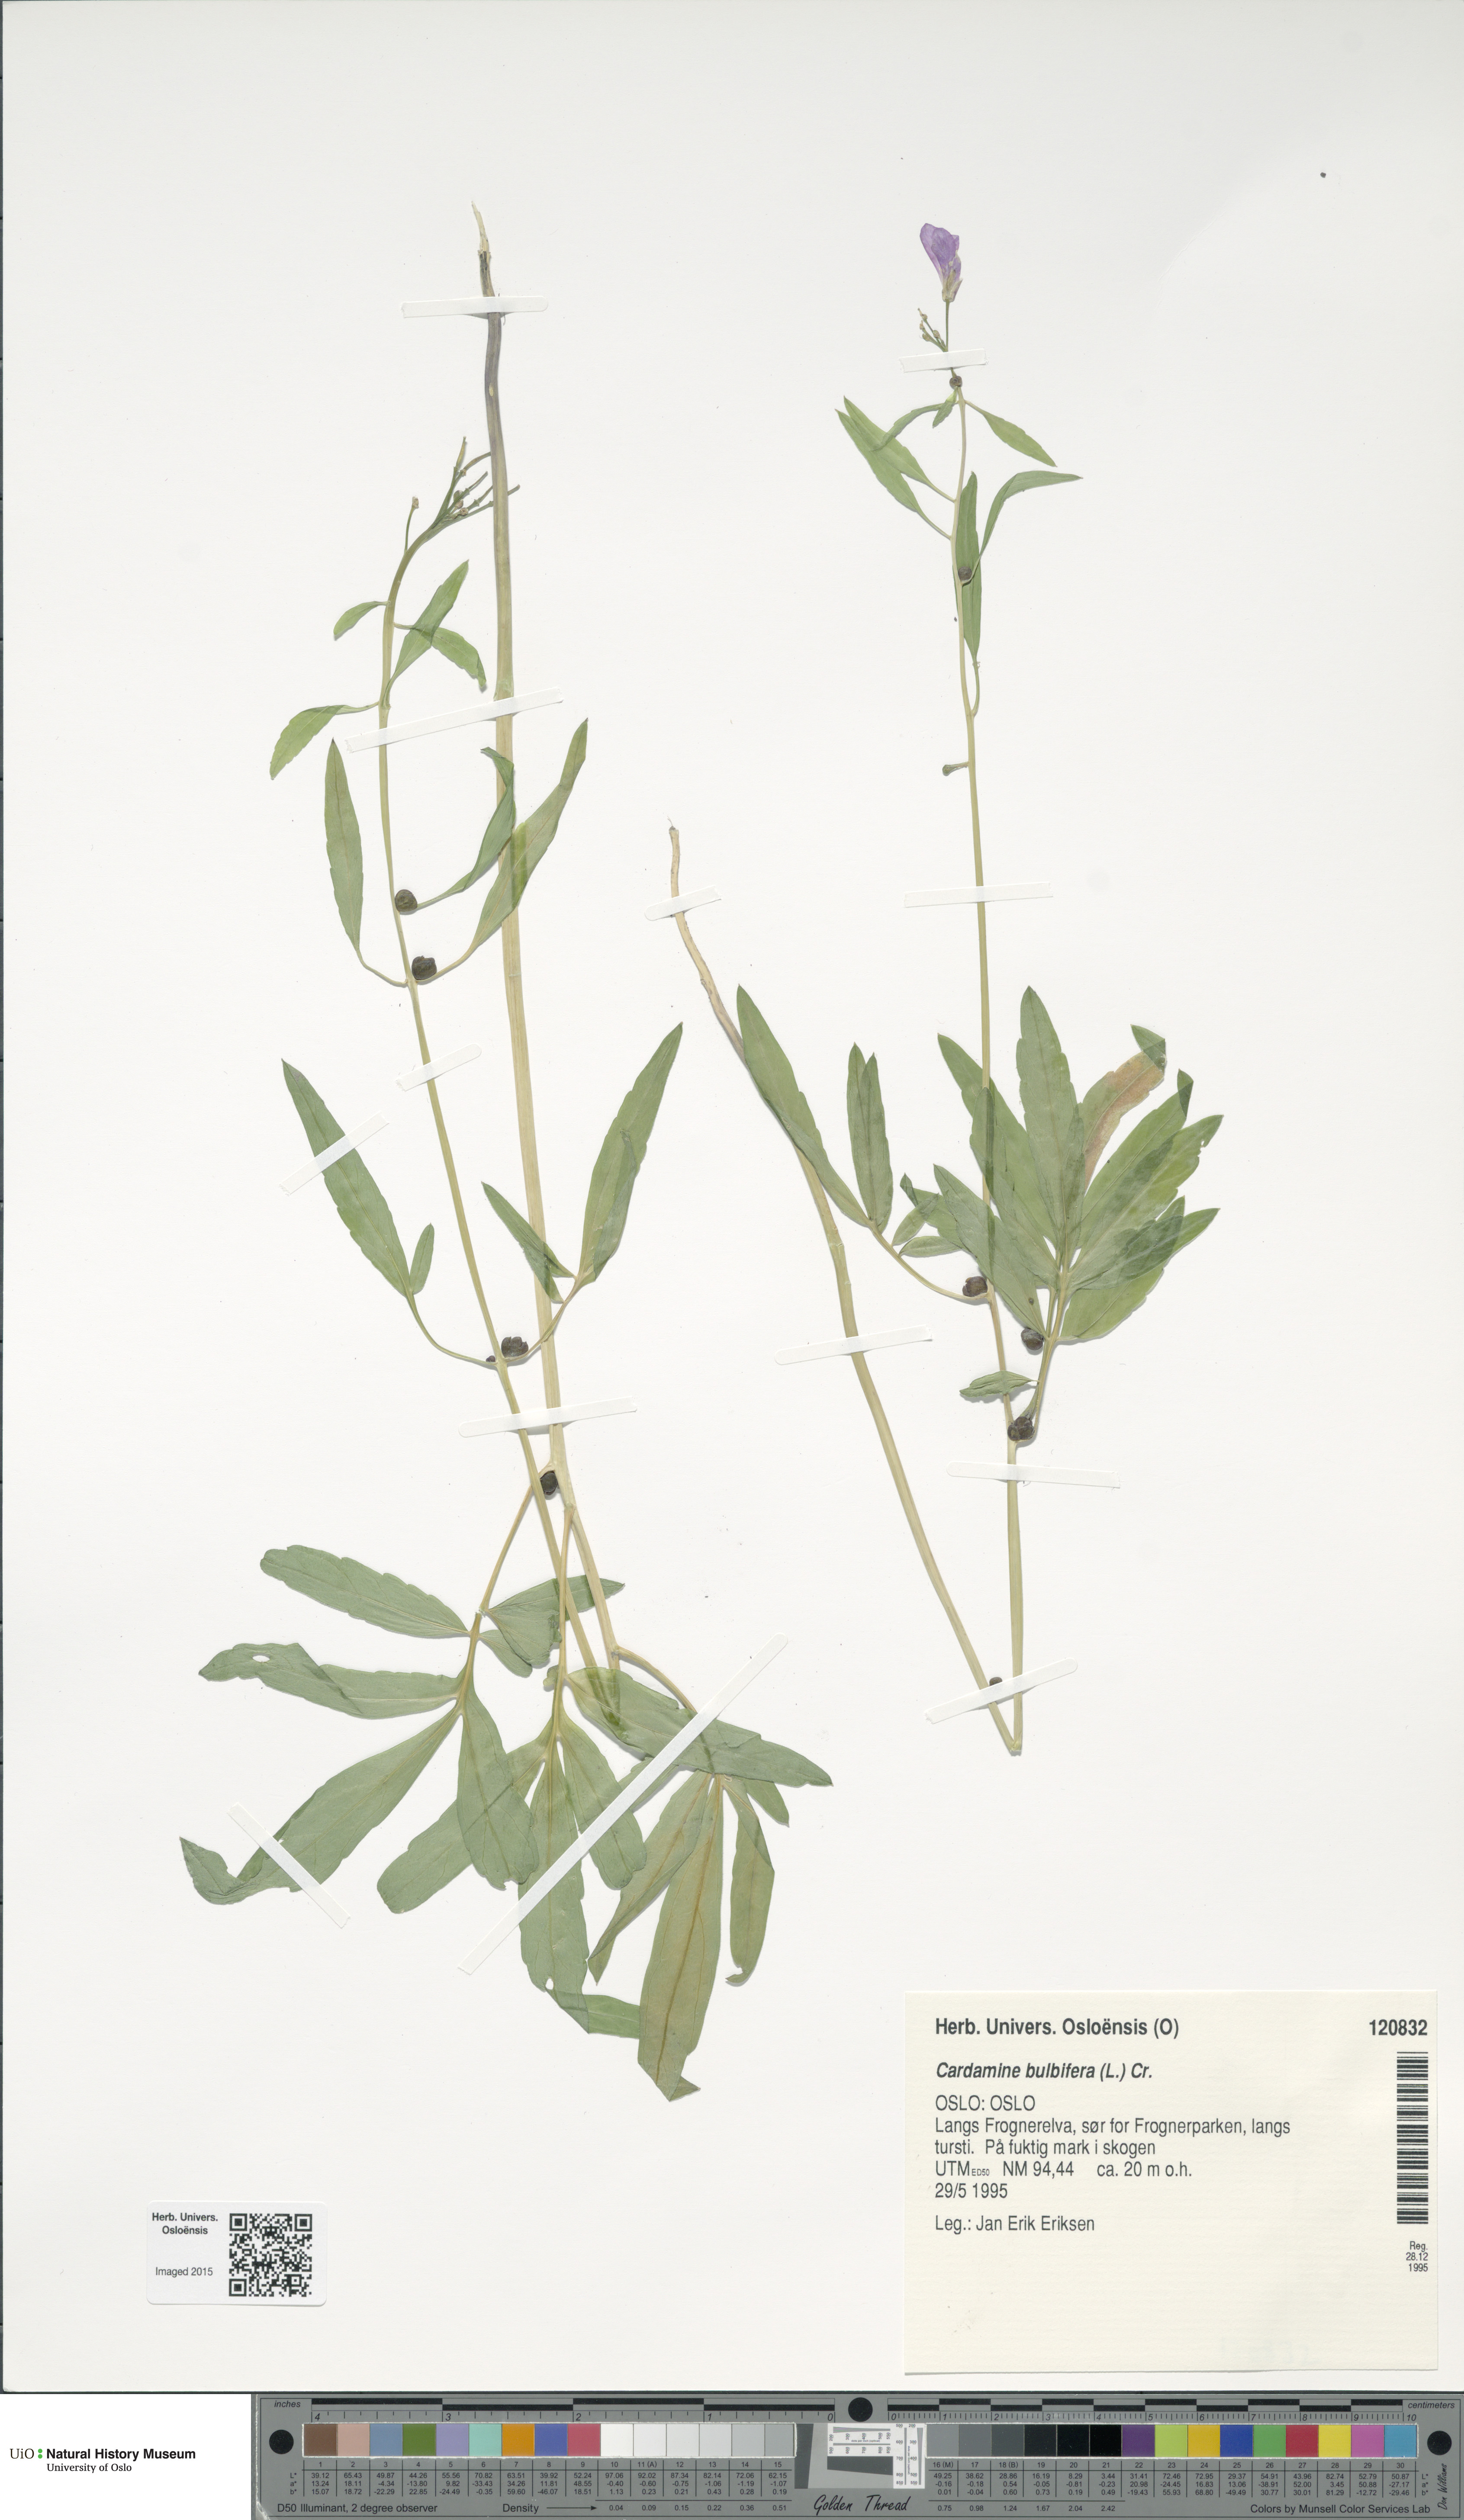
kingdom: Plantae
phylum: Tracheophyta
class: Magnoliopsida
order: Brassicales
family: Brassicaceae
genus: Cardamine
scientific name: Cardamine bulbifera
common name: Coralroot bittercress
